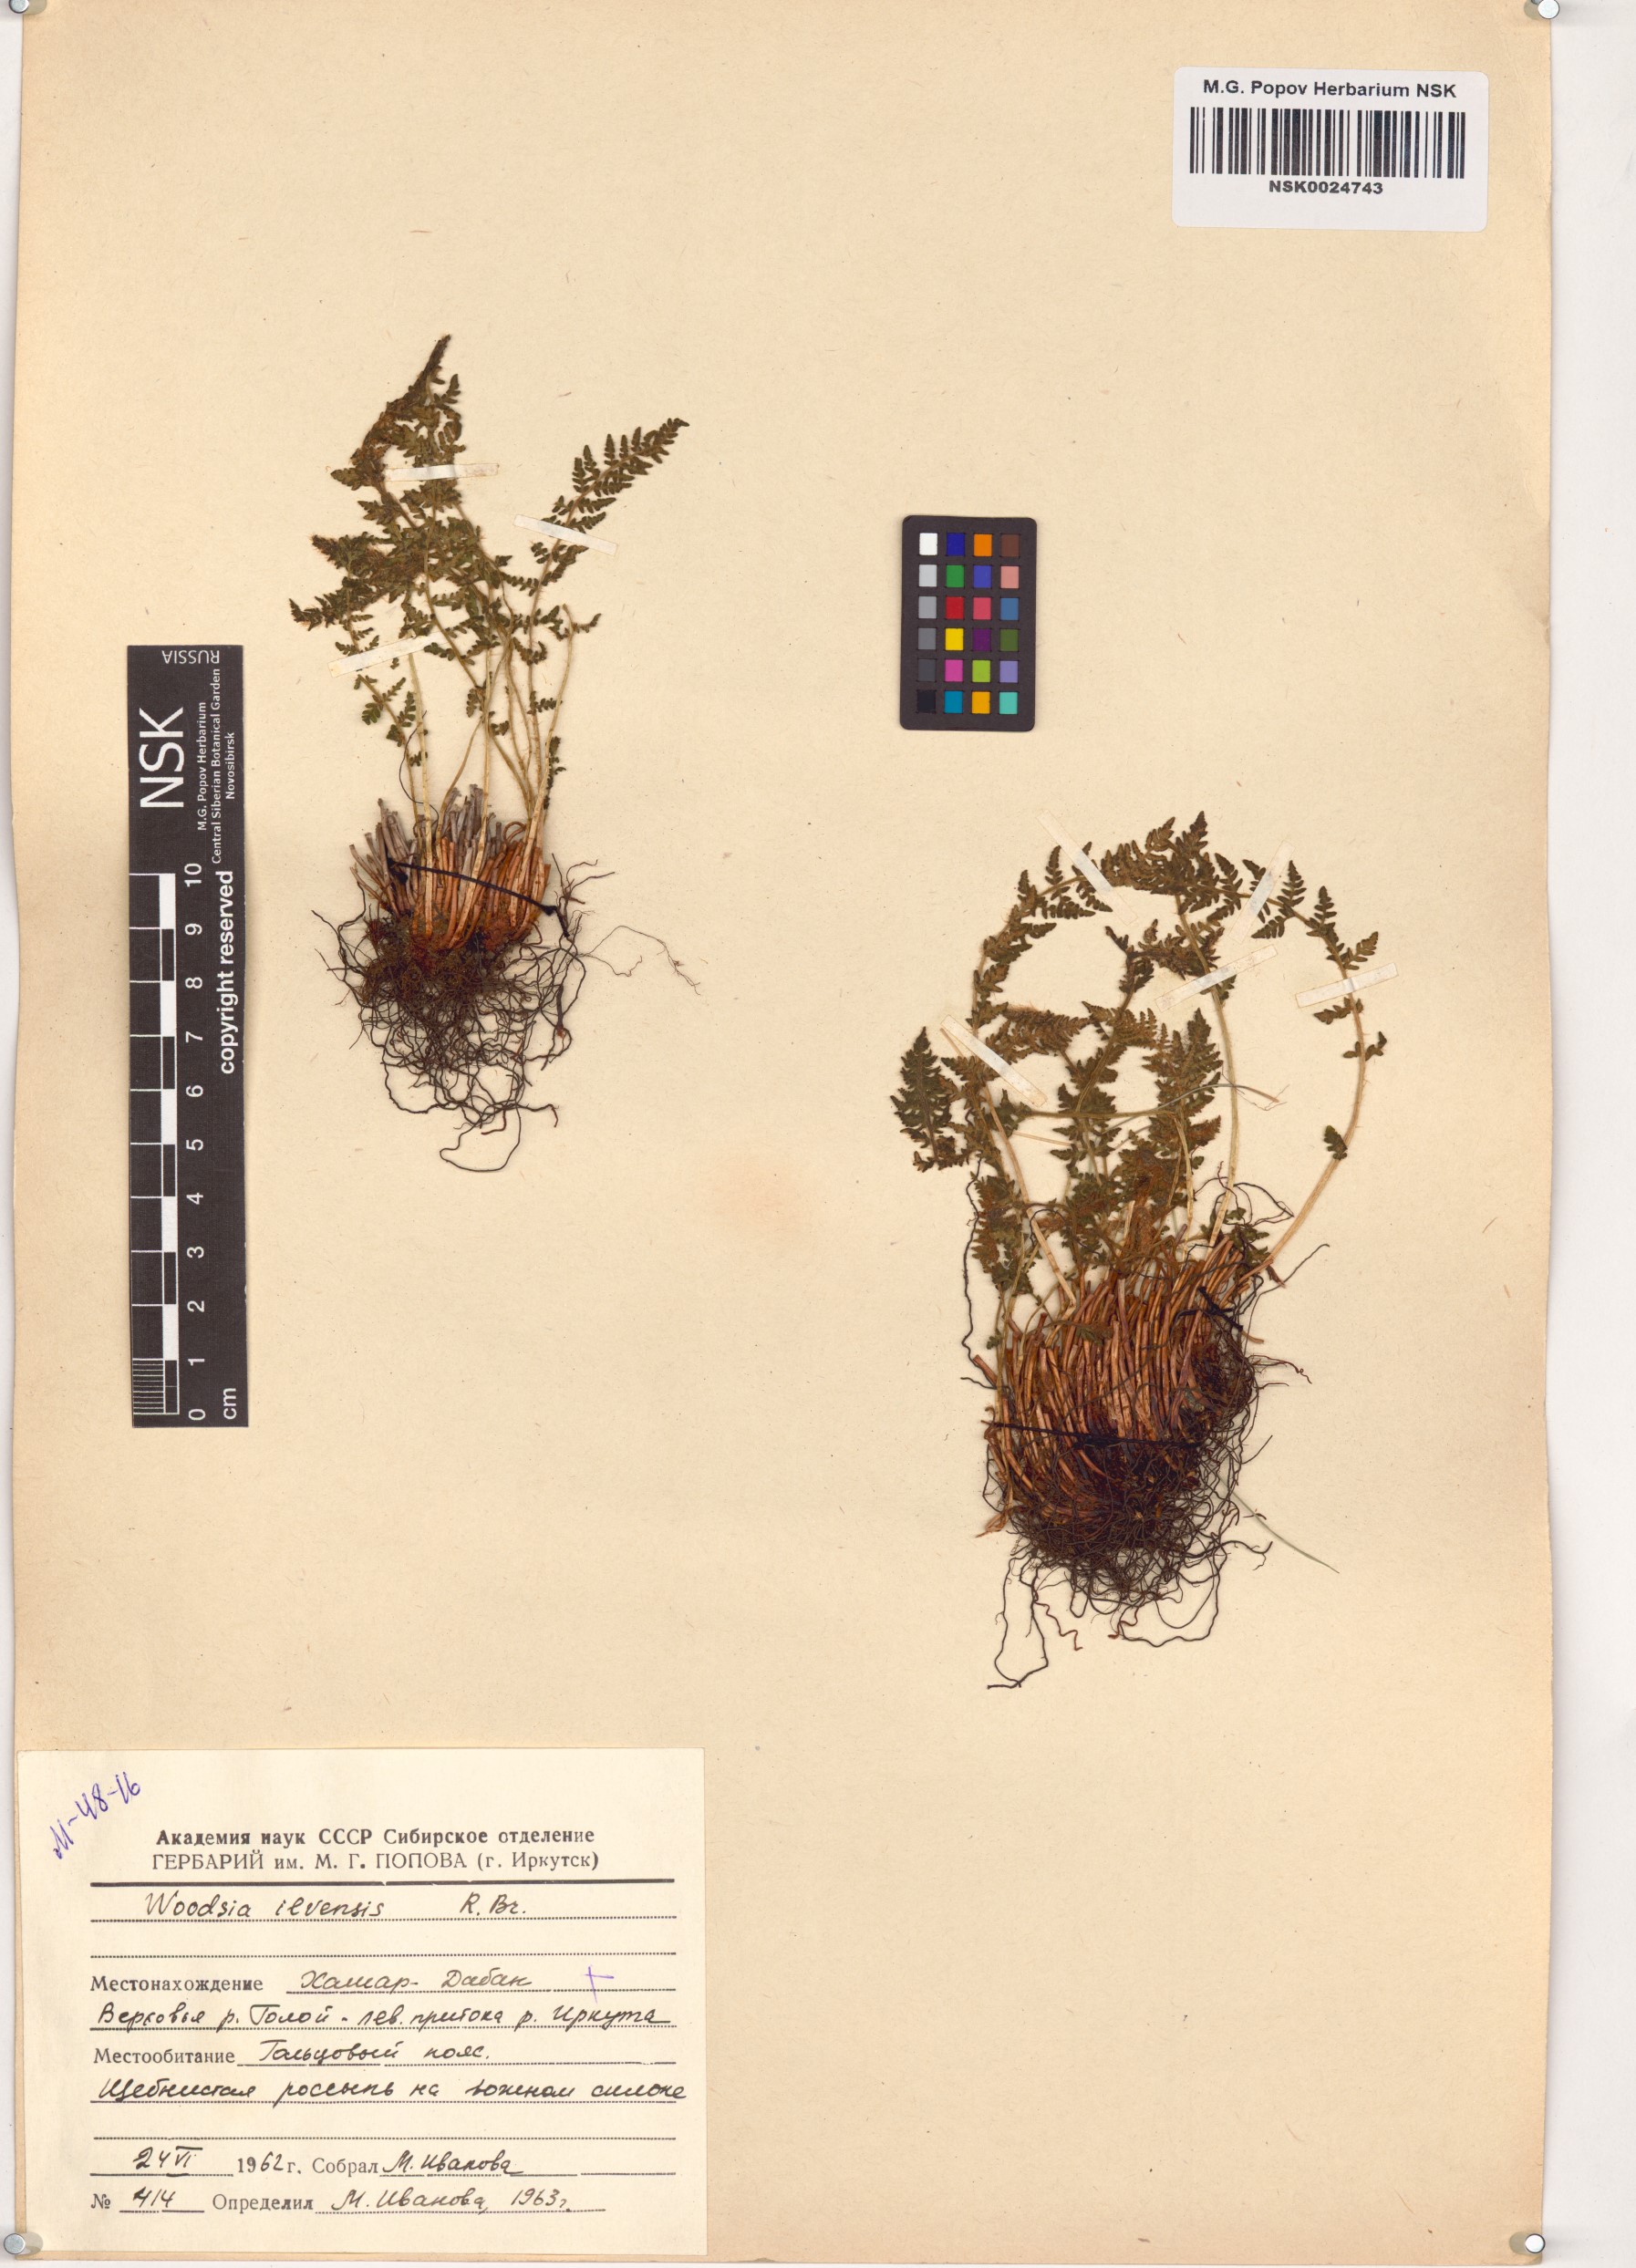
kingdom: Plantae
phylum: Tracheophyta
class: Polypodiopsida
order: Polypodiales
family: Woodsiaceae
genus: Woodsia
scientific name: Woodsia ilvensis
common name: Fragrant woodsia
